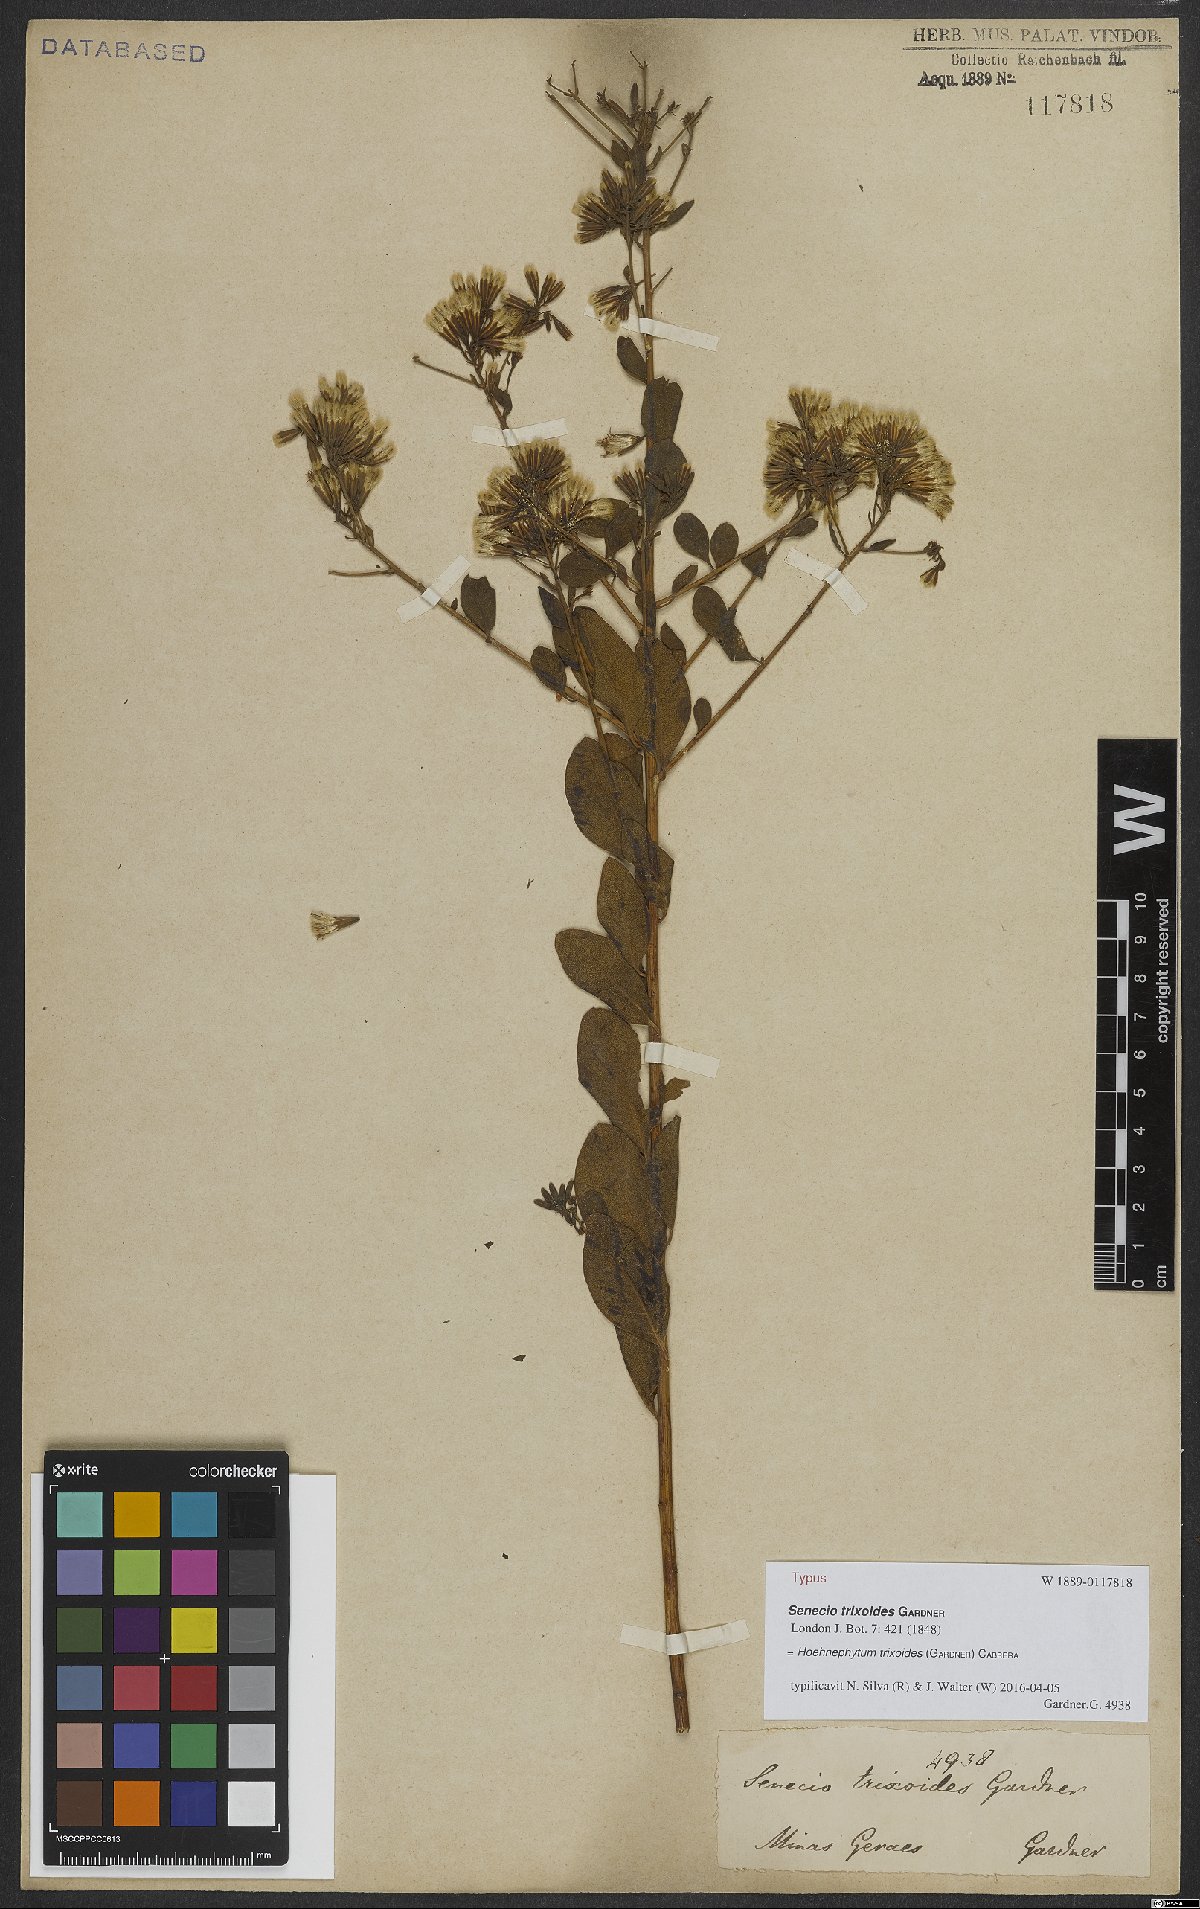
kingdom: Plantae
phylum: Tracheophyta
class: Magnoliopsida
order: Asterales
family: Asteraceae
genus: Hoehnephytum
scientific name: Hoehnephytum trixoides
